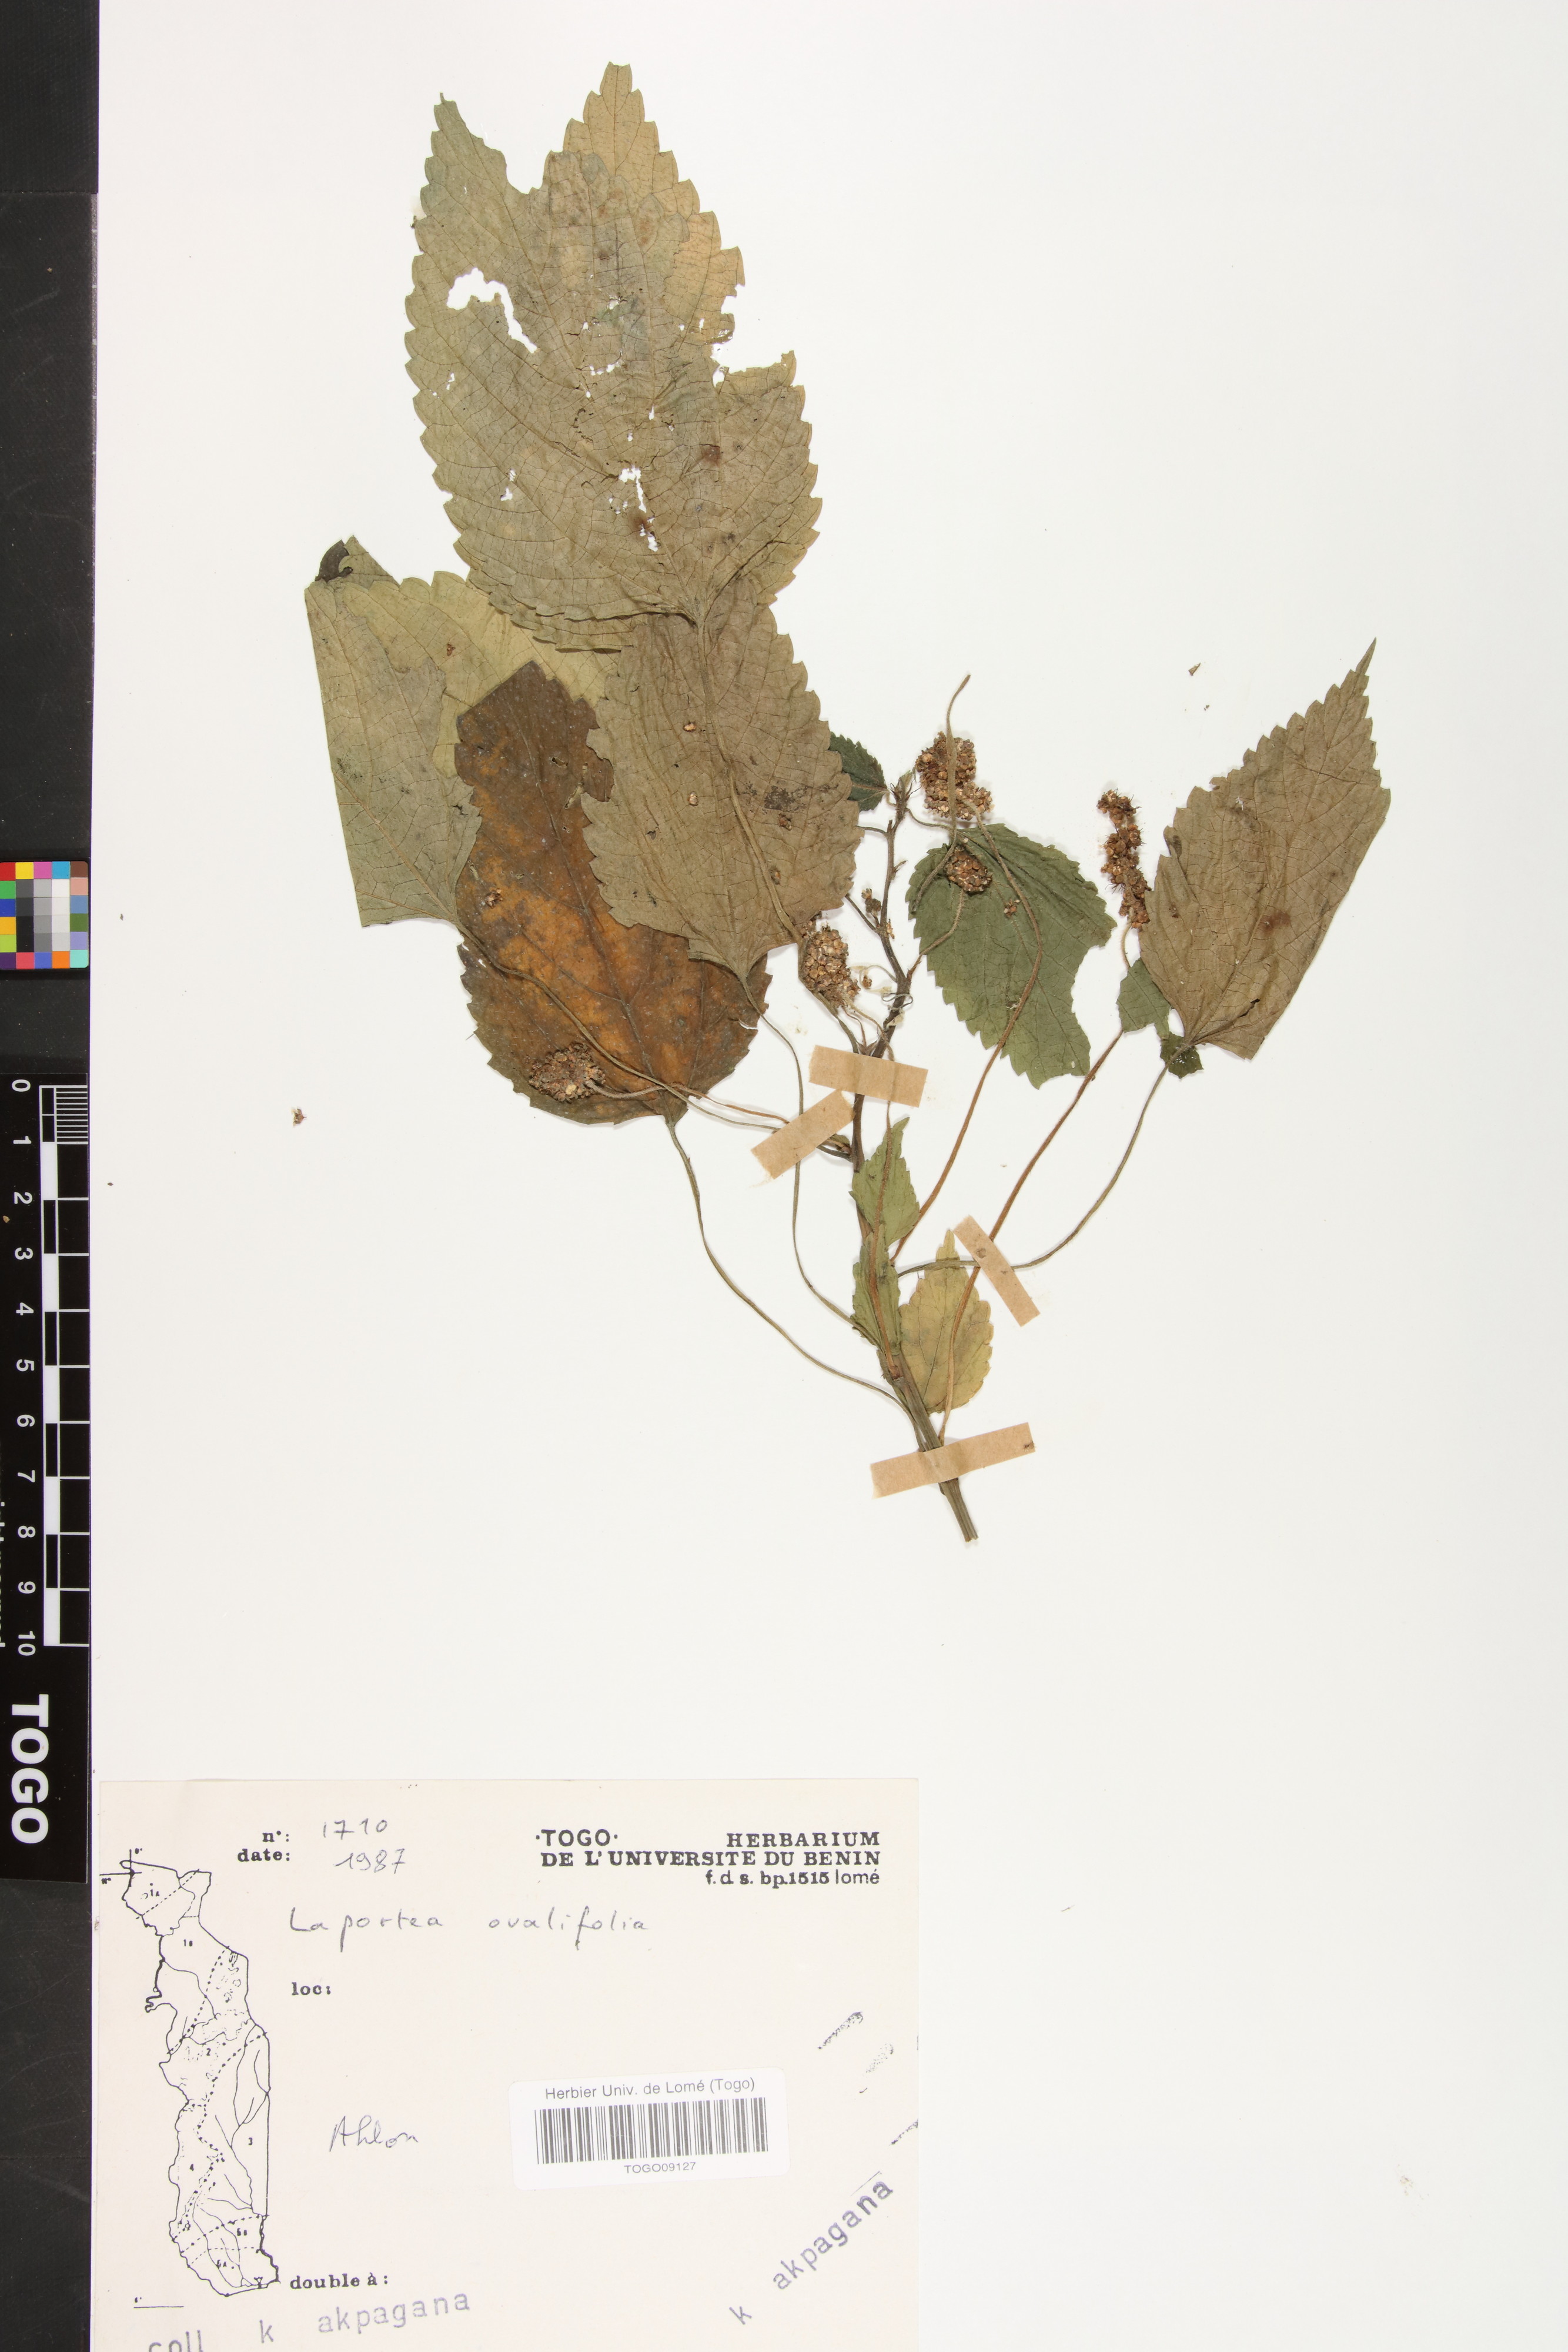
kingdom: Plantae
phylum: Tracheophyta
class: Magnoliopsida
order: Rosales
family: Urticaceae
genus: Laportea
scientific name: Laportea ovalifolia
